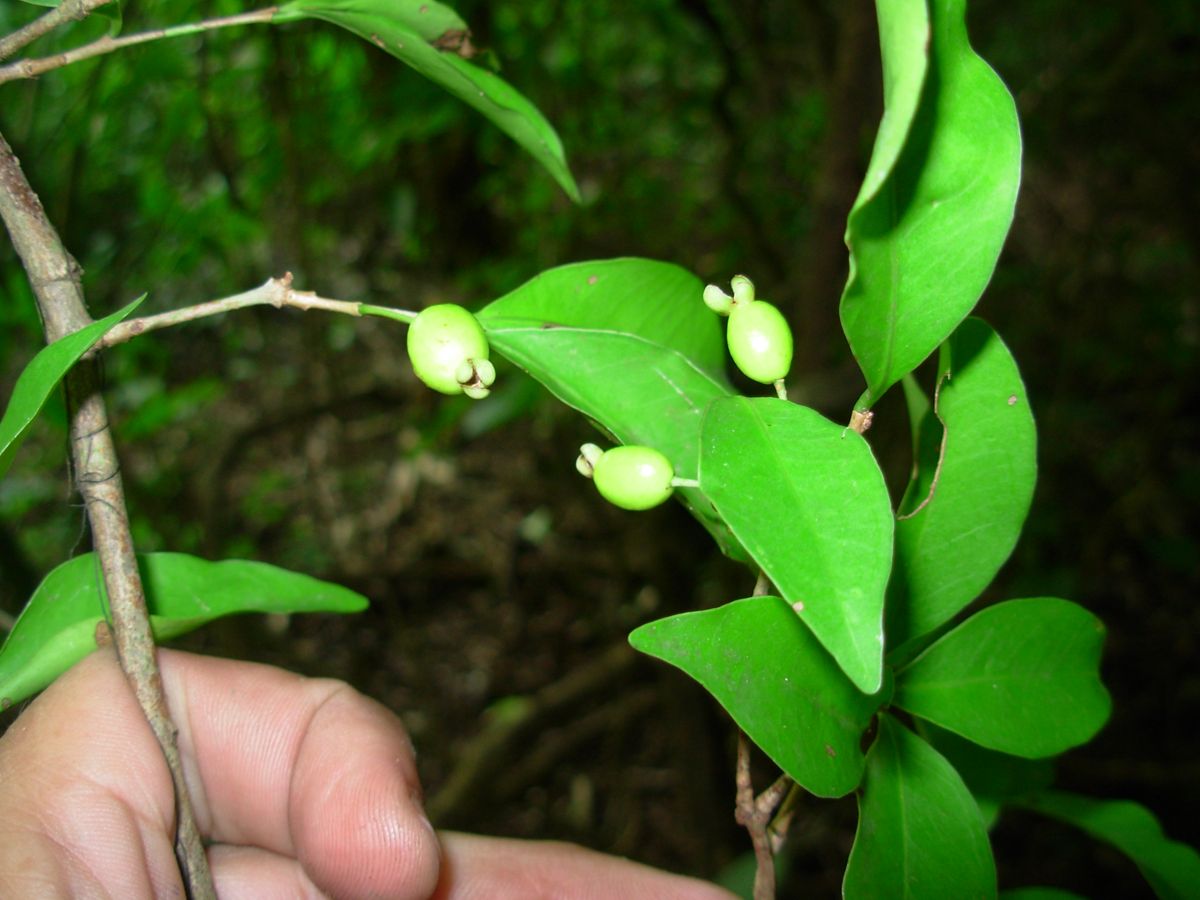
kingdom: Plantae
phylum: Tracheophyta
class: Magnoliopsida
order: Myrtales
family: Myrtaceae
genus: Eugenia
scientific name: Eugenia oerstediana
